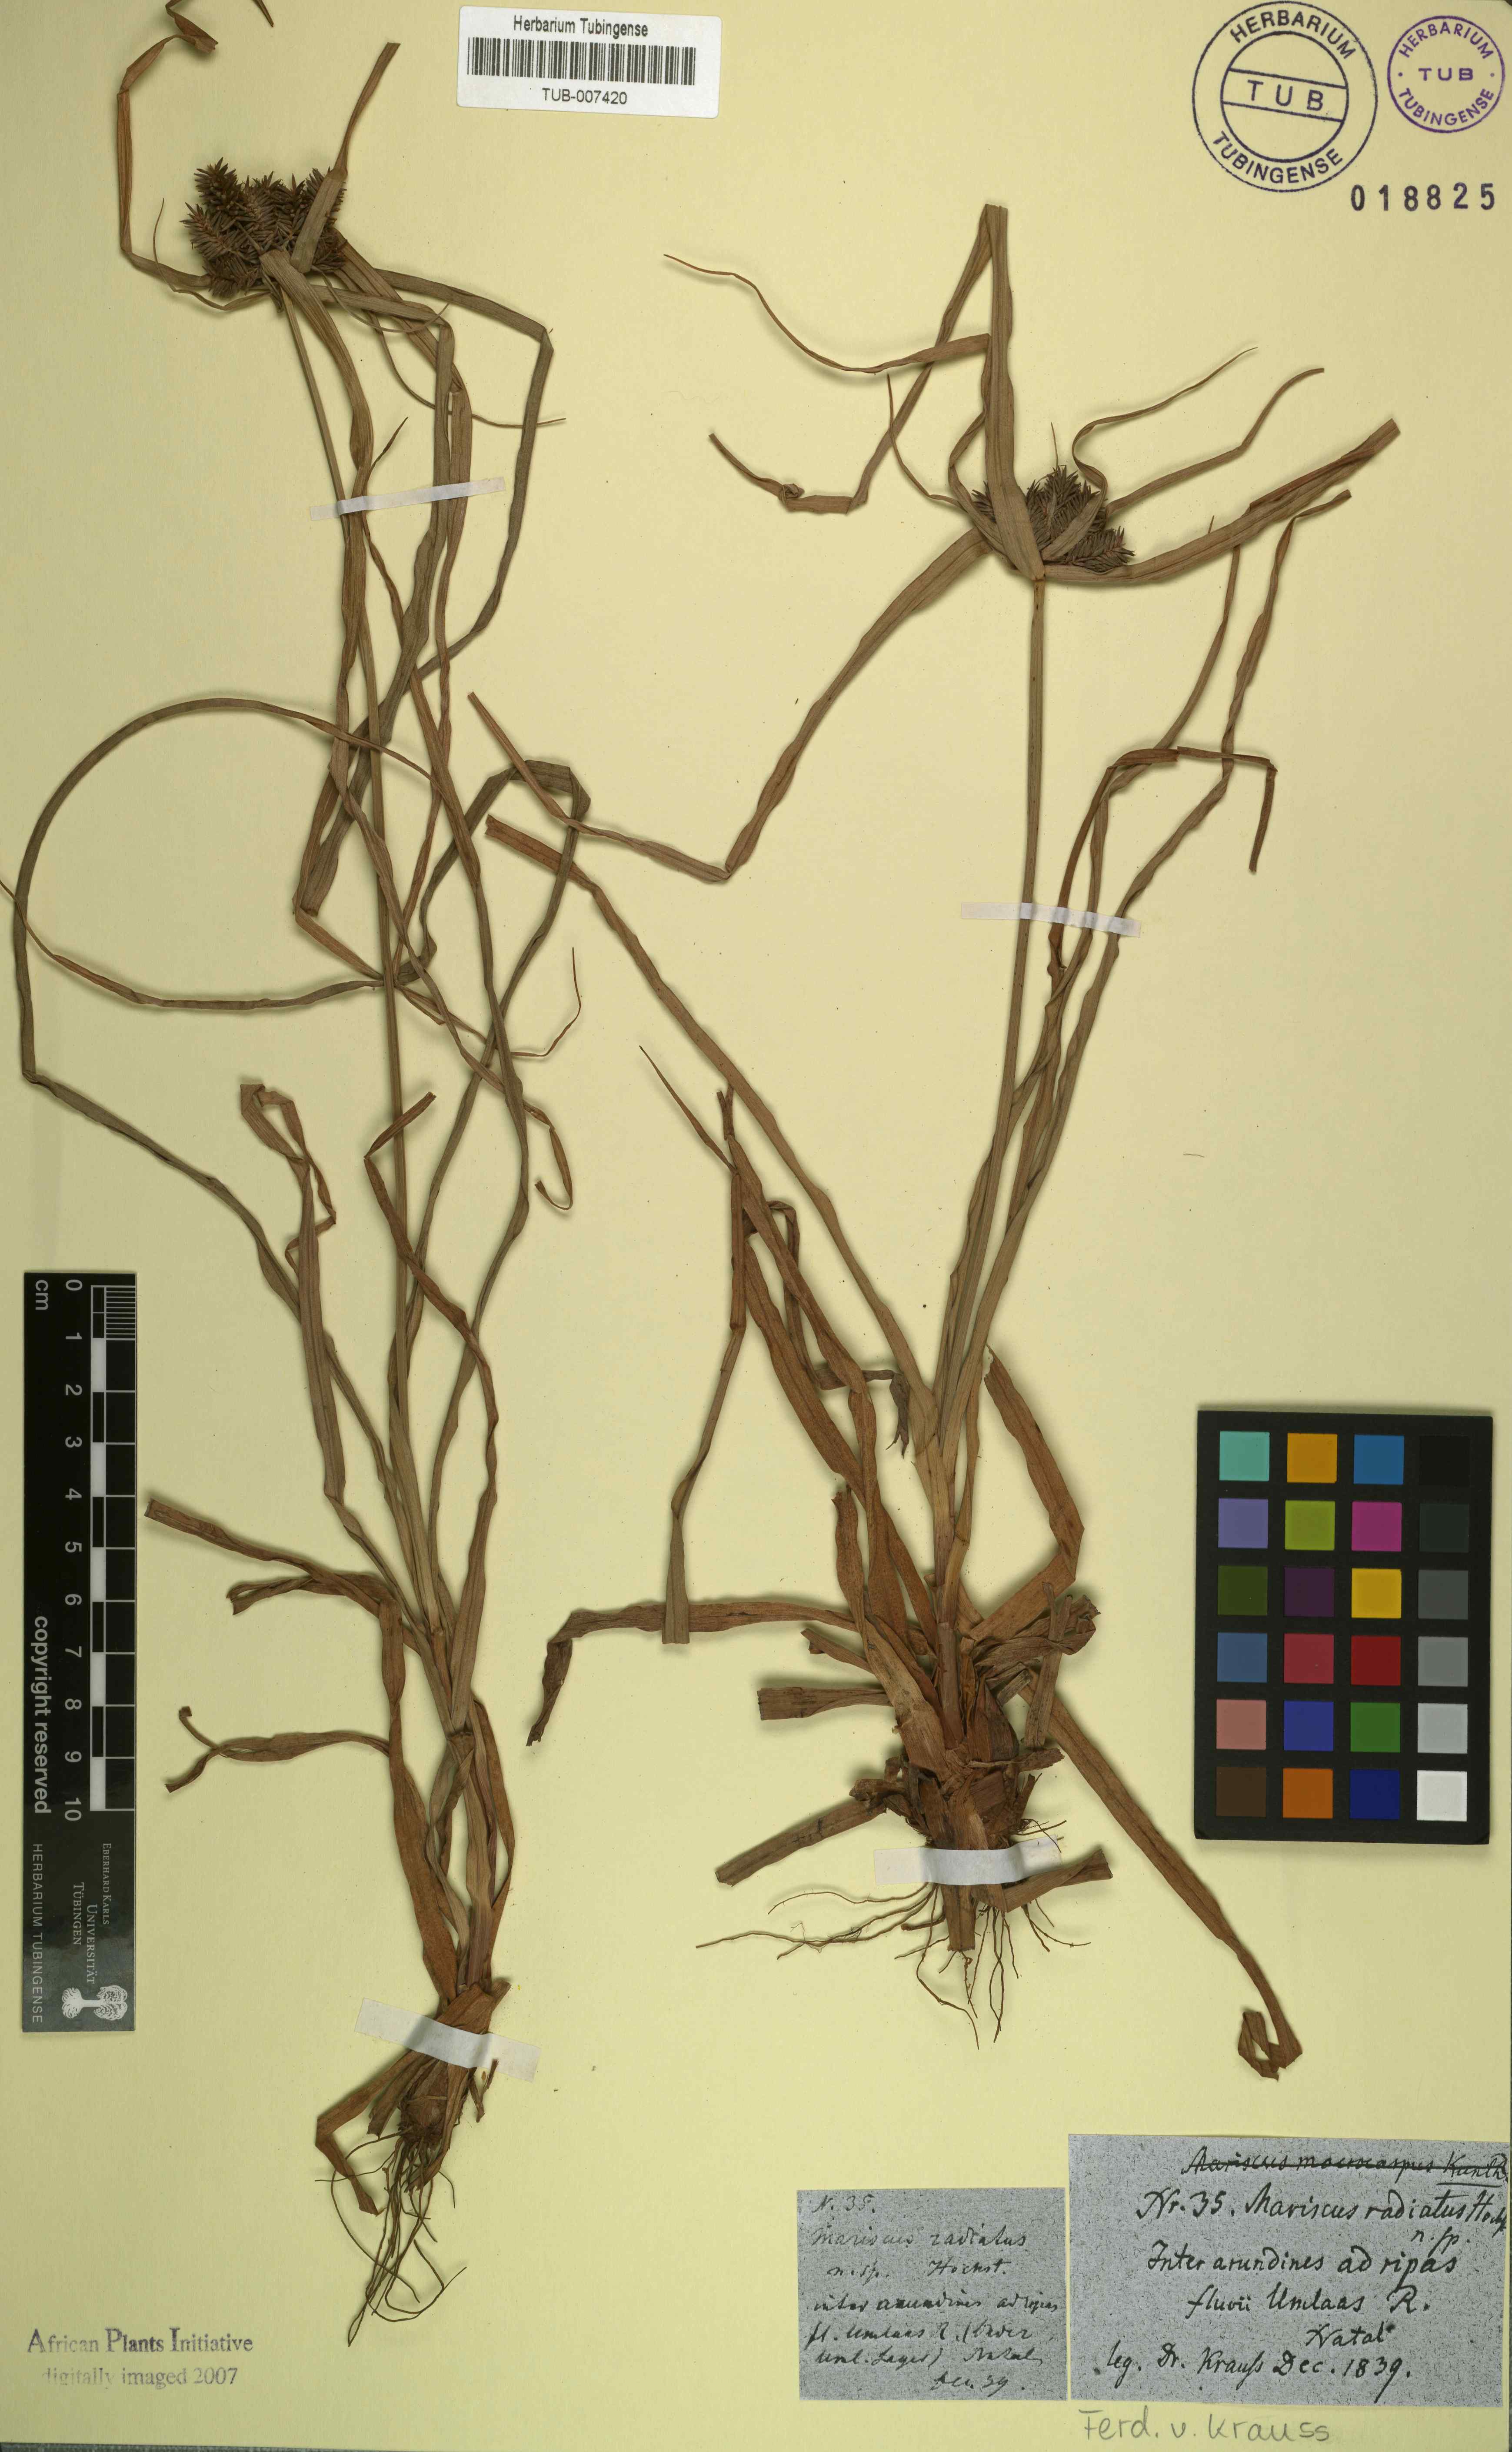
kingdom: Plantae
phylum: Tracheophyta
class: Liliopsida
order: Poales
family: Cyperaceae
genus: Cyperus
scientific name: Cyperus macrocarpus
